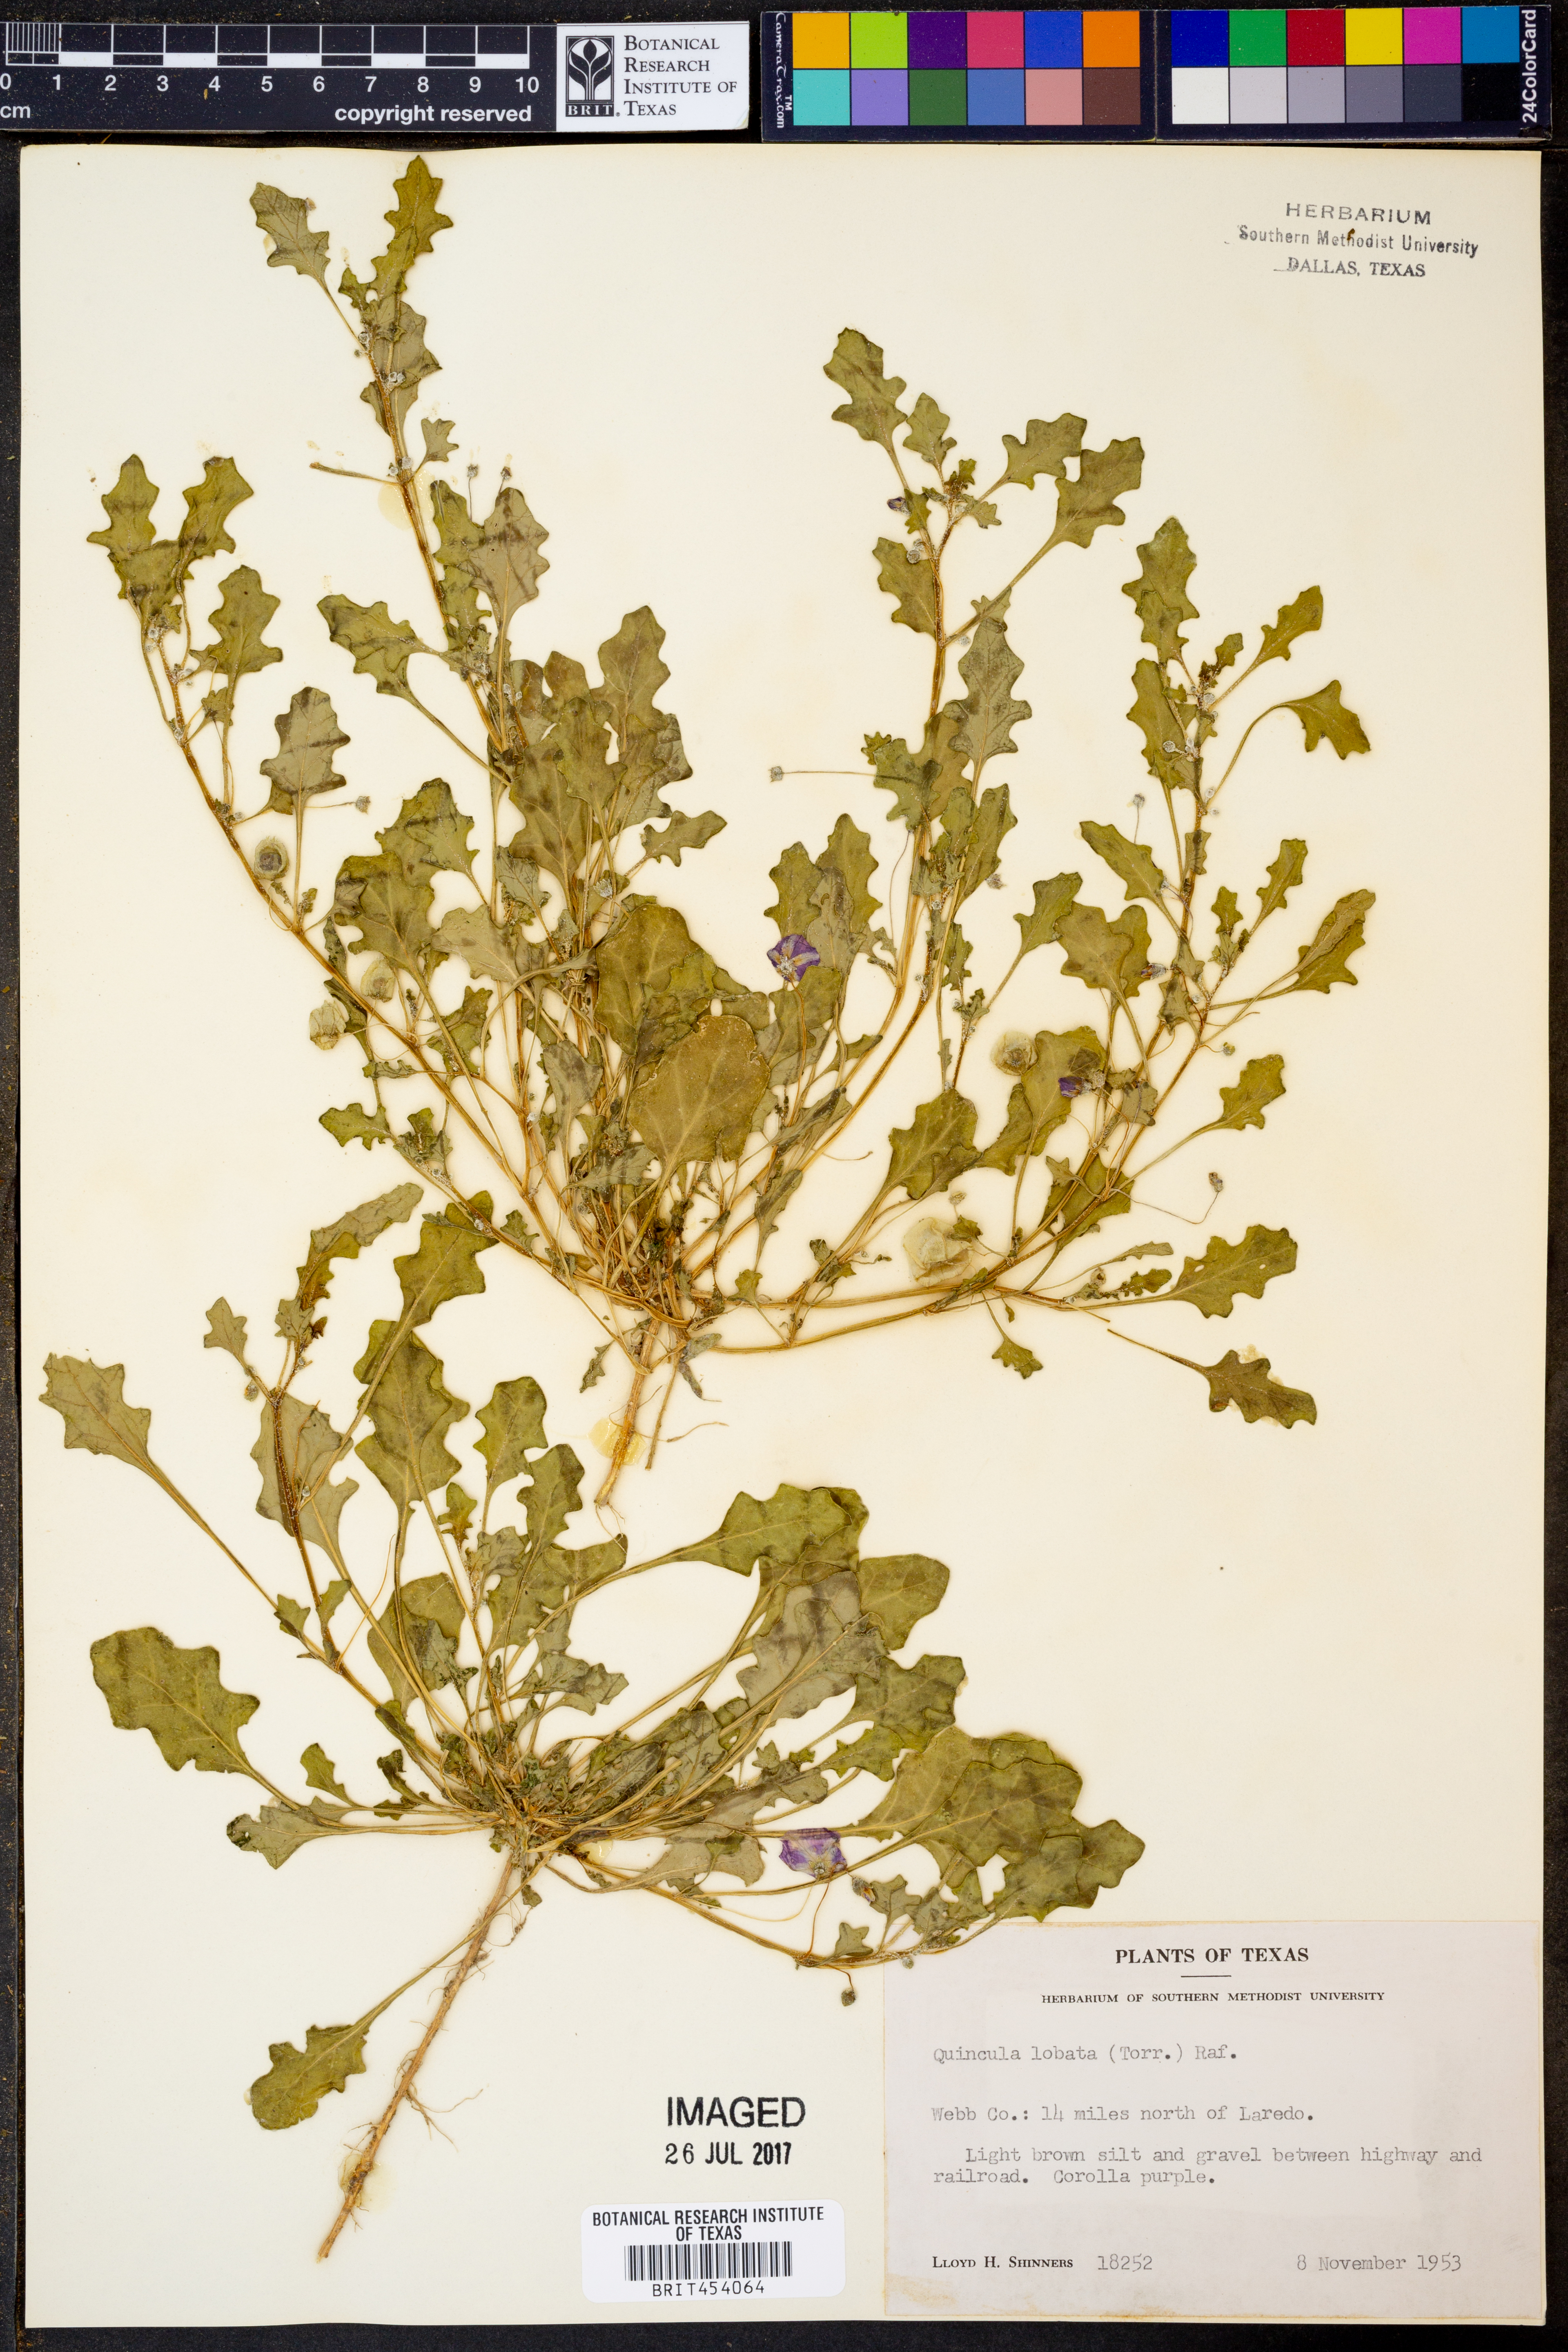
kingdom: Plantae
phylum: Tracheophyta
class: Magnoliopsida
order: Solanales
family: Solanaceae
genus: Quincula
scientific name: Quincula lobata
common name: Purple-ground-cherry
